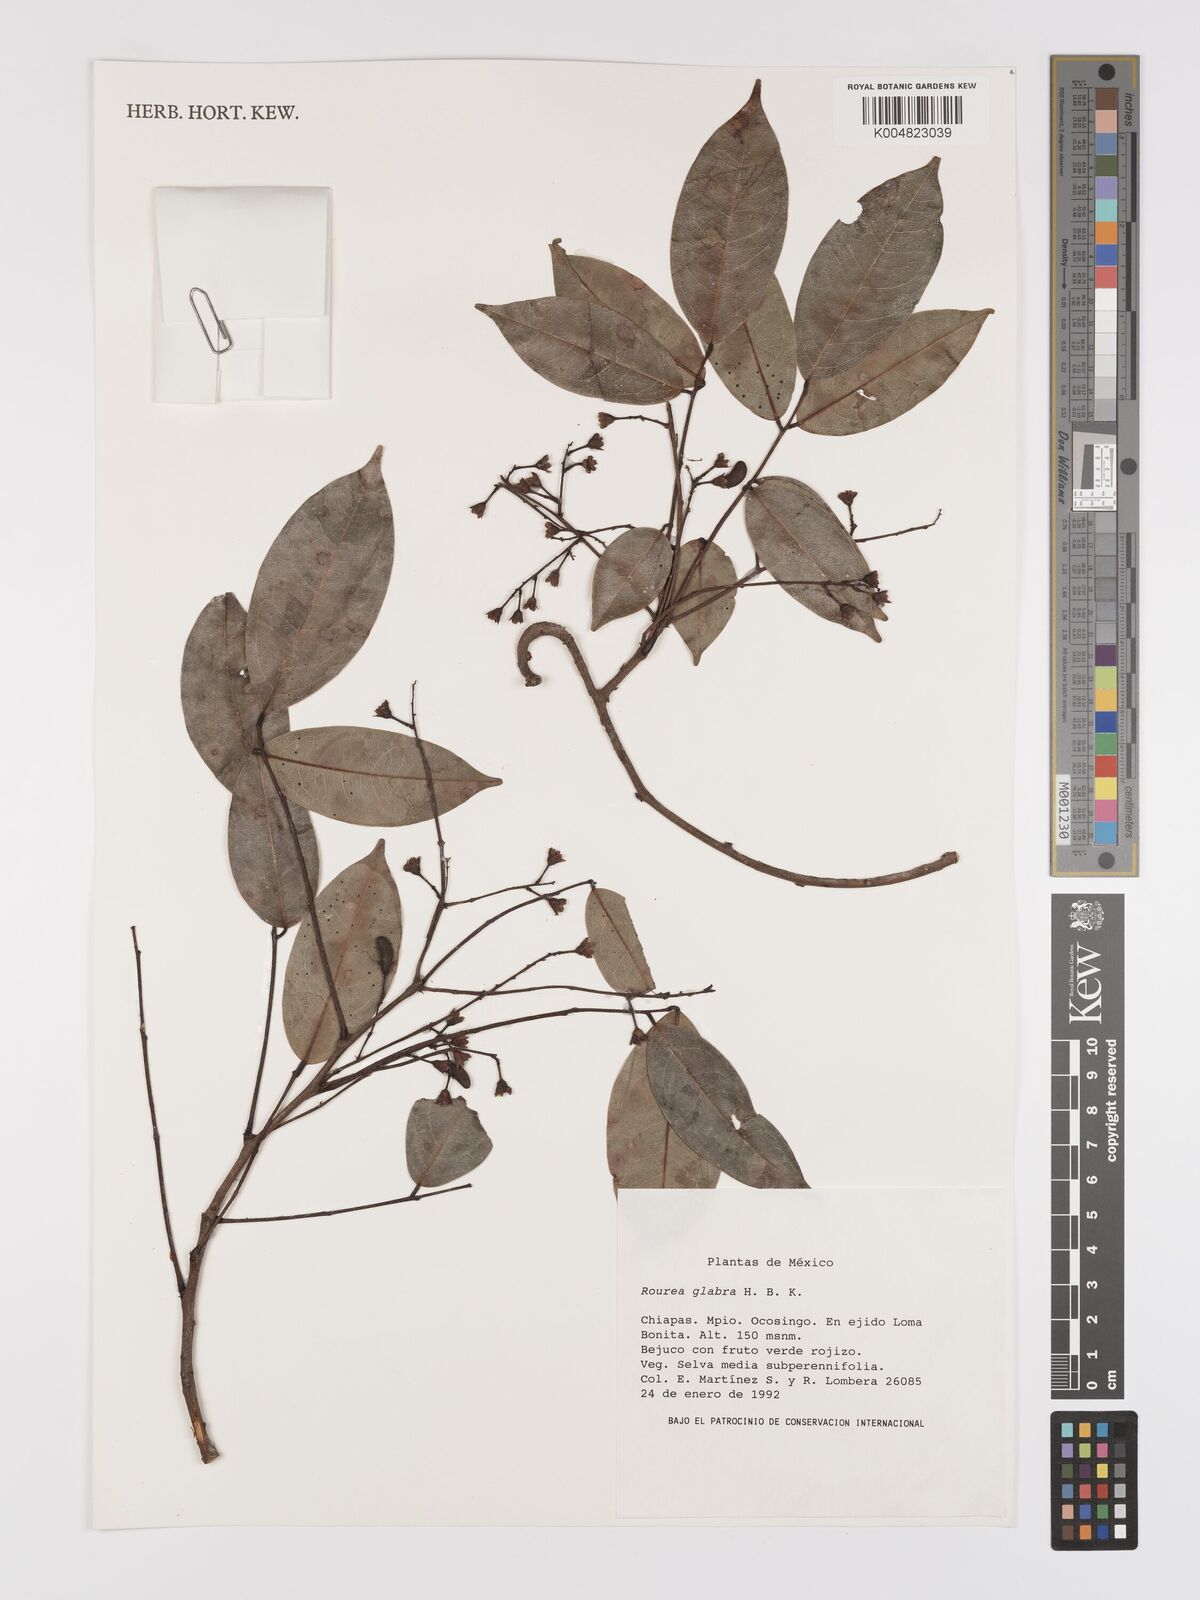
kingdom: Plantae
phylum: Tracheophyta
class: Magnoliopsida
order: Oxalidales
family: Connaraceae
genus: Rourea
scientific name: Rourea glabra
